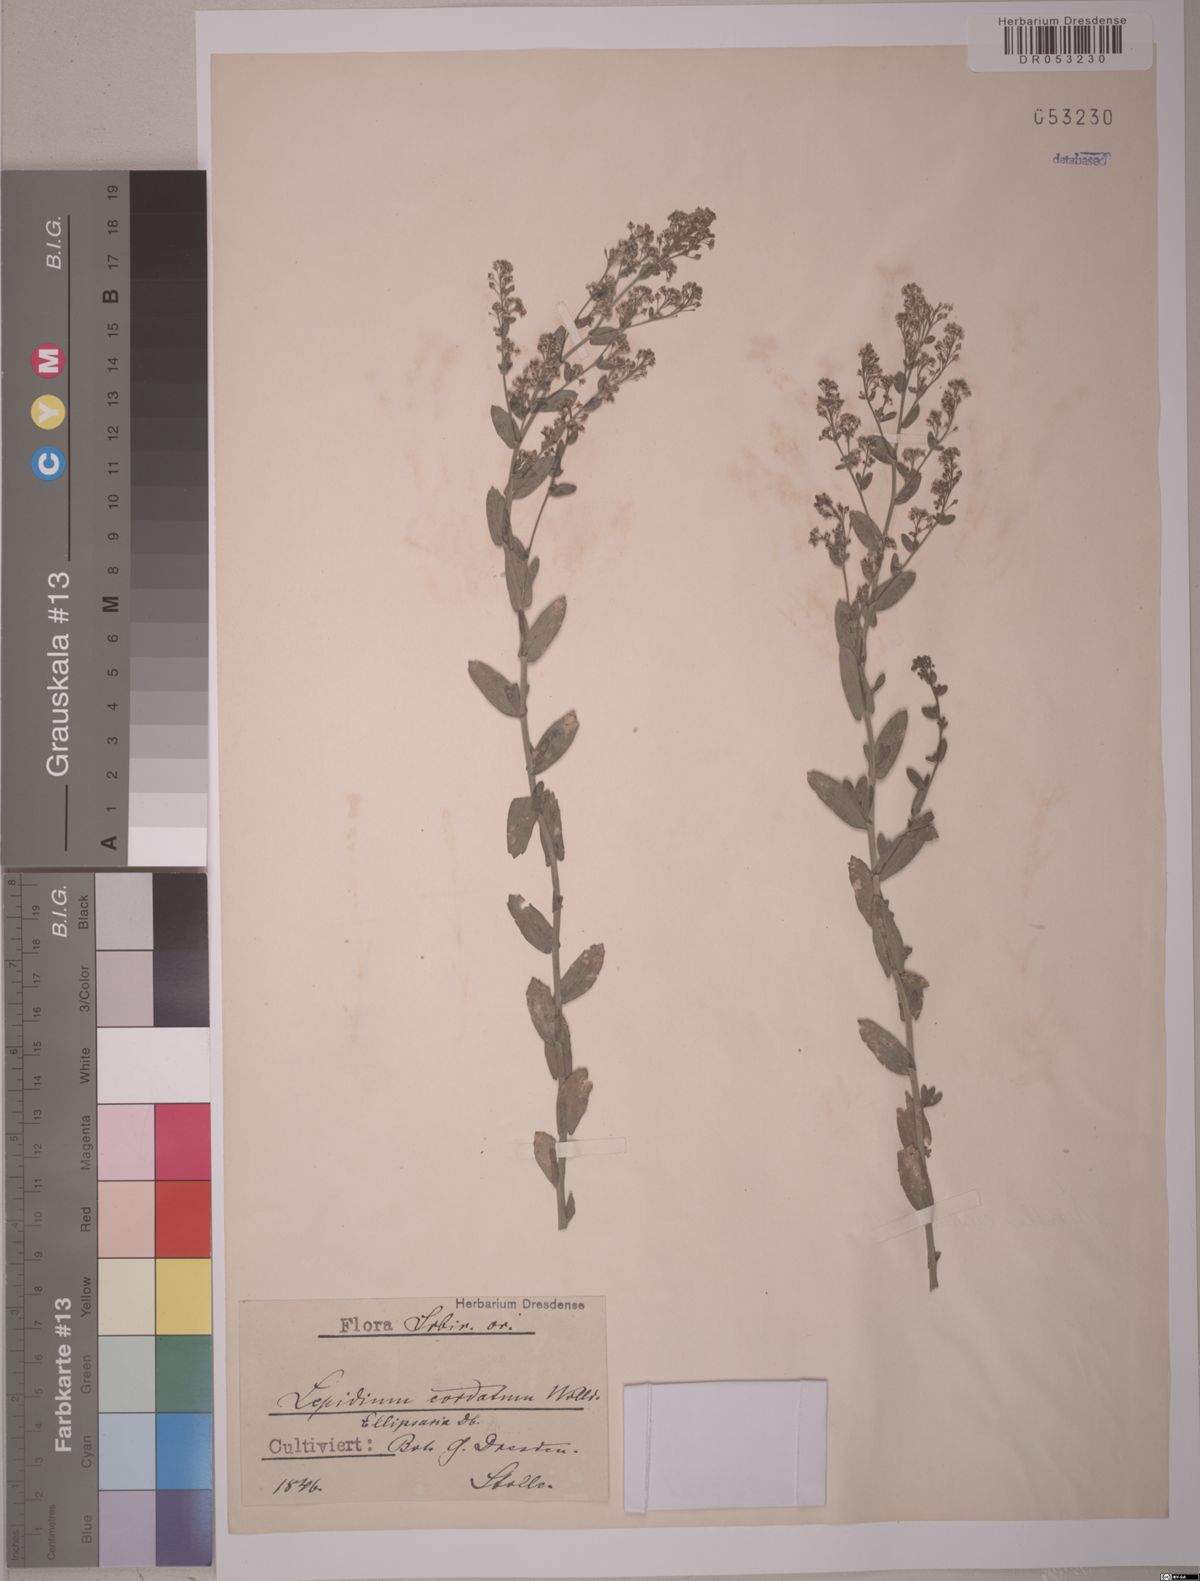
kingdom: Plantae
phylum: Tracheophyta
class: Magnoliopsida
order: Brassicales
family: Brassicaceae
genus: Lepidium
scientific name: Lepidium cordatum
